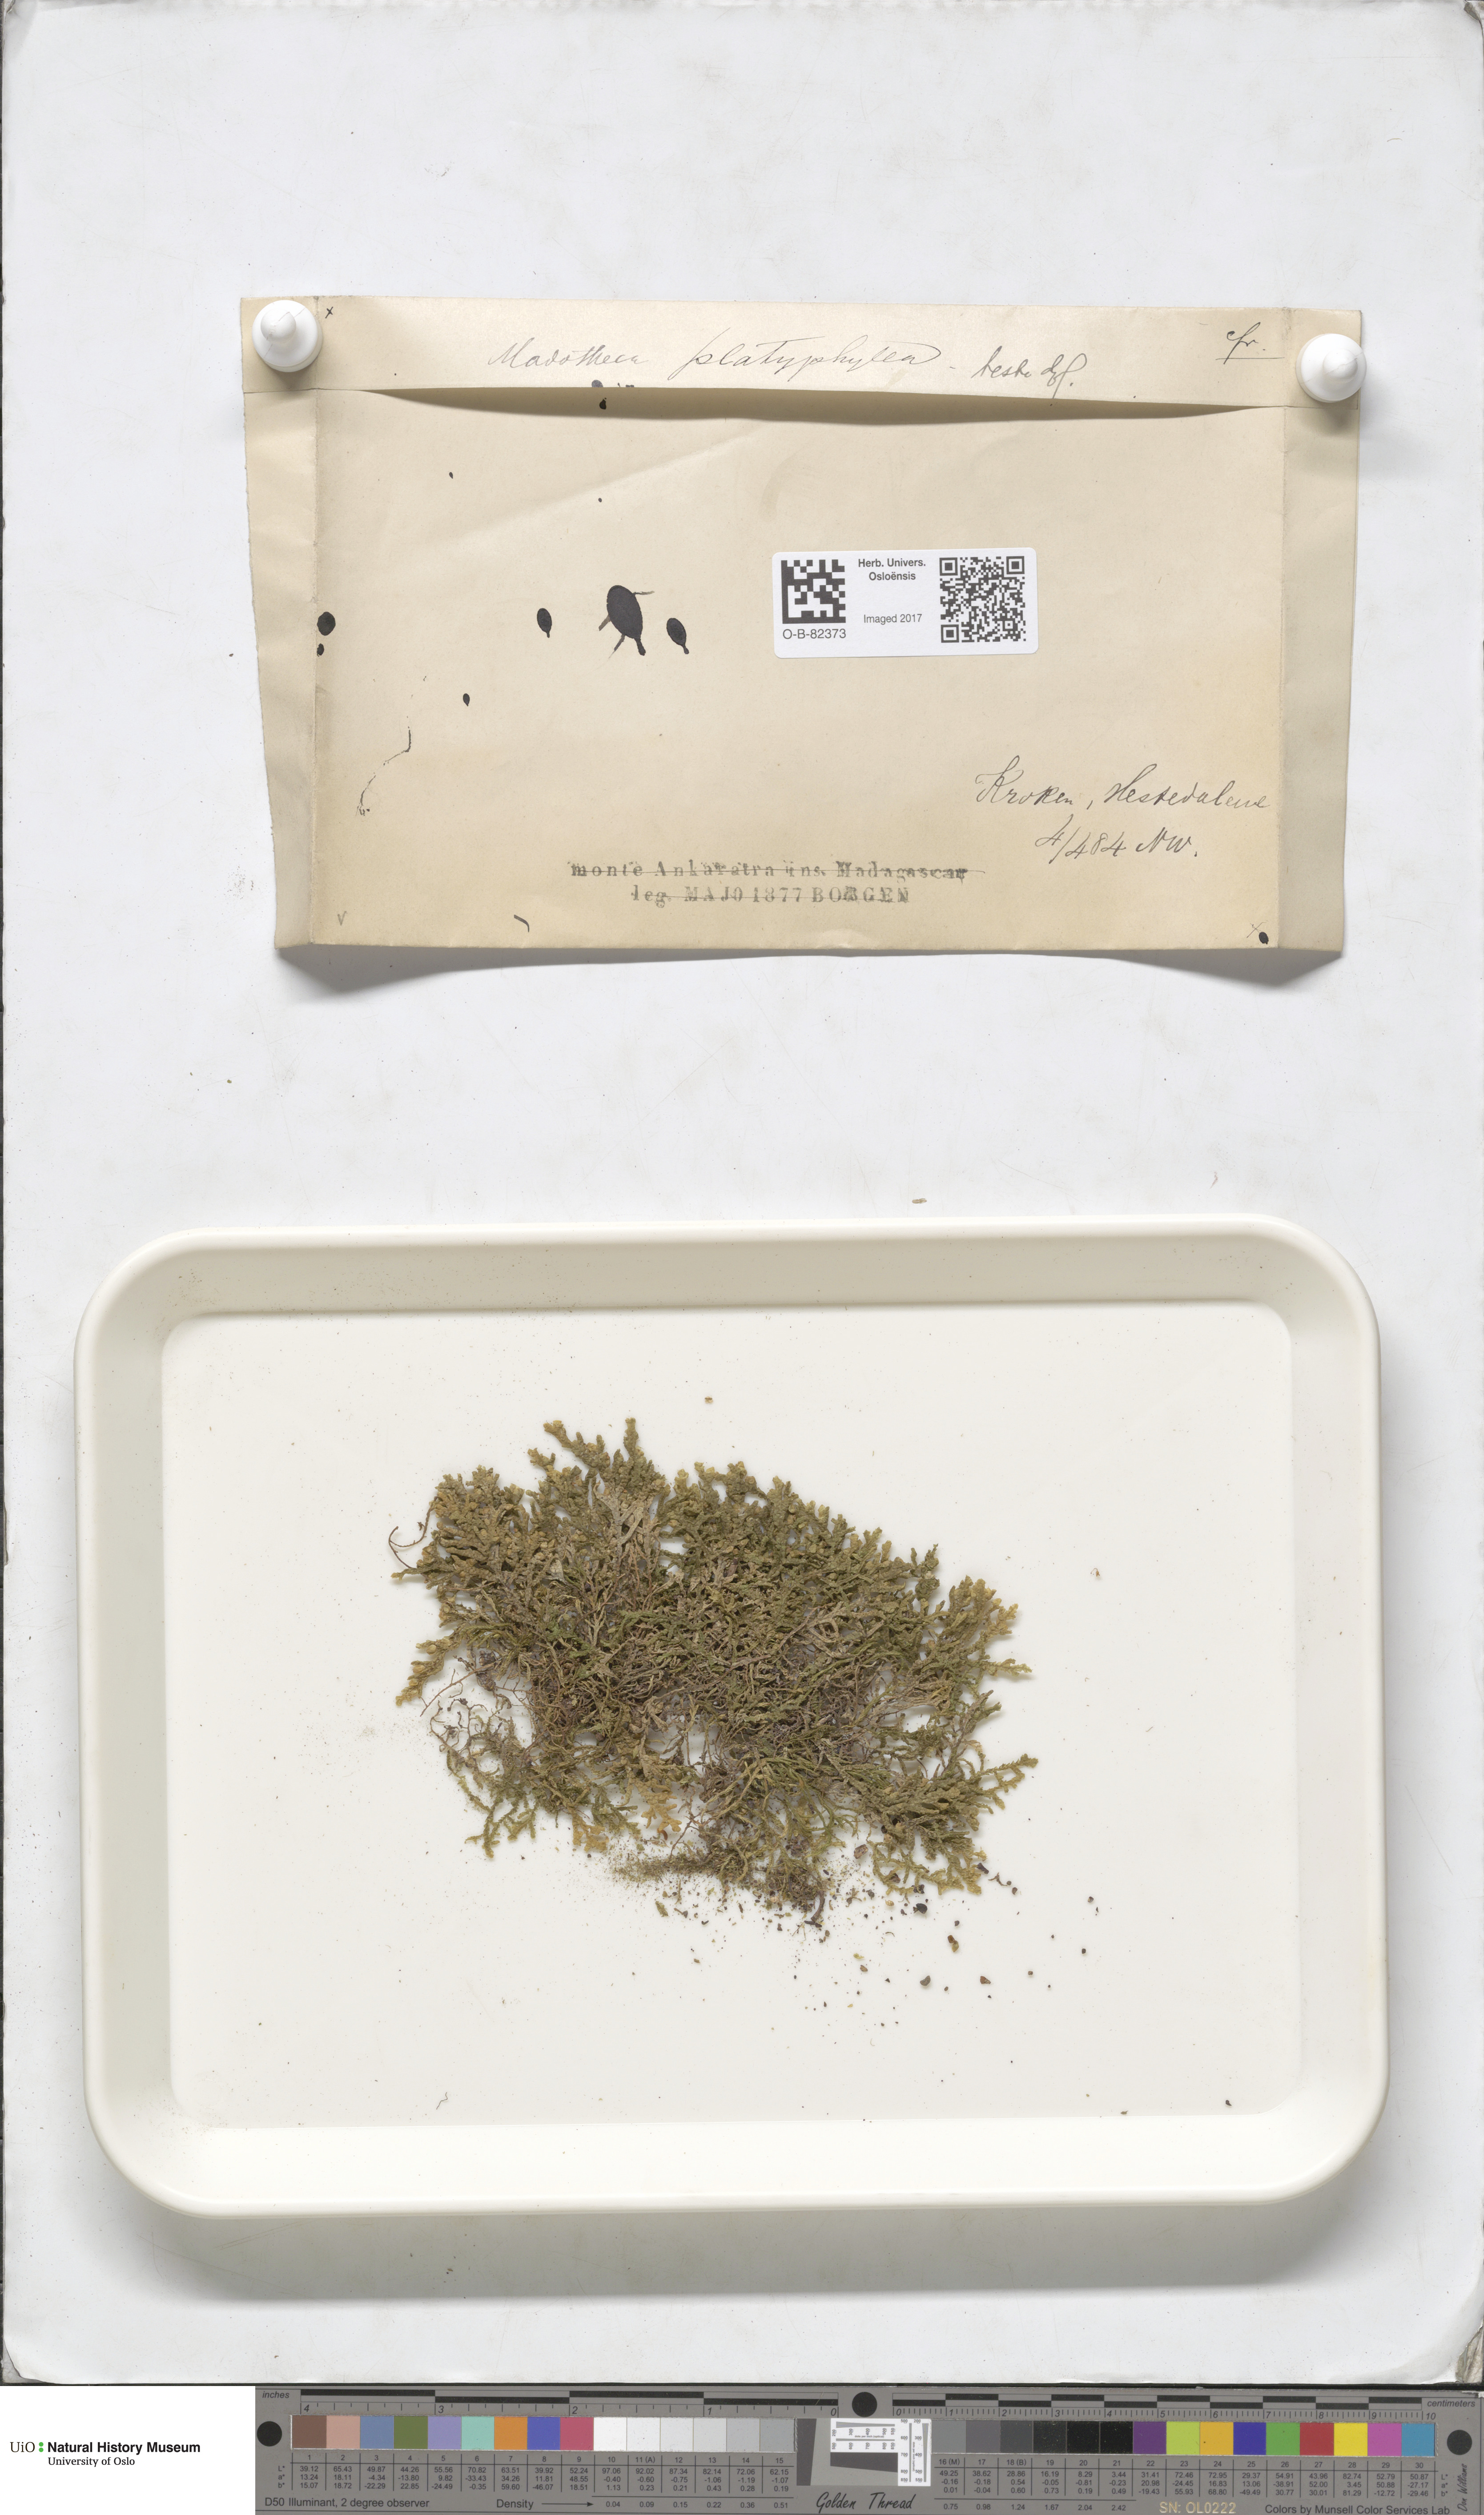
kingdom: Plantae
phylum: Marchantiophyta
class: Jungermanniopsida
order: Porellales
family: Porellaceae
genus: Porella
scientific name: Porella platyphylla
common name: Wall scalewort
